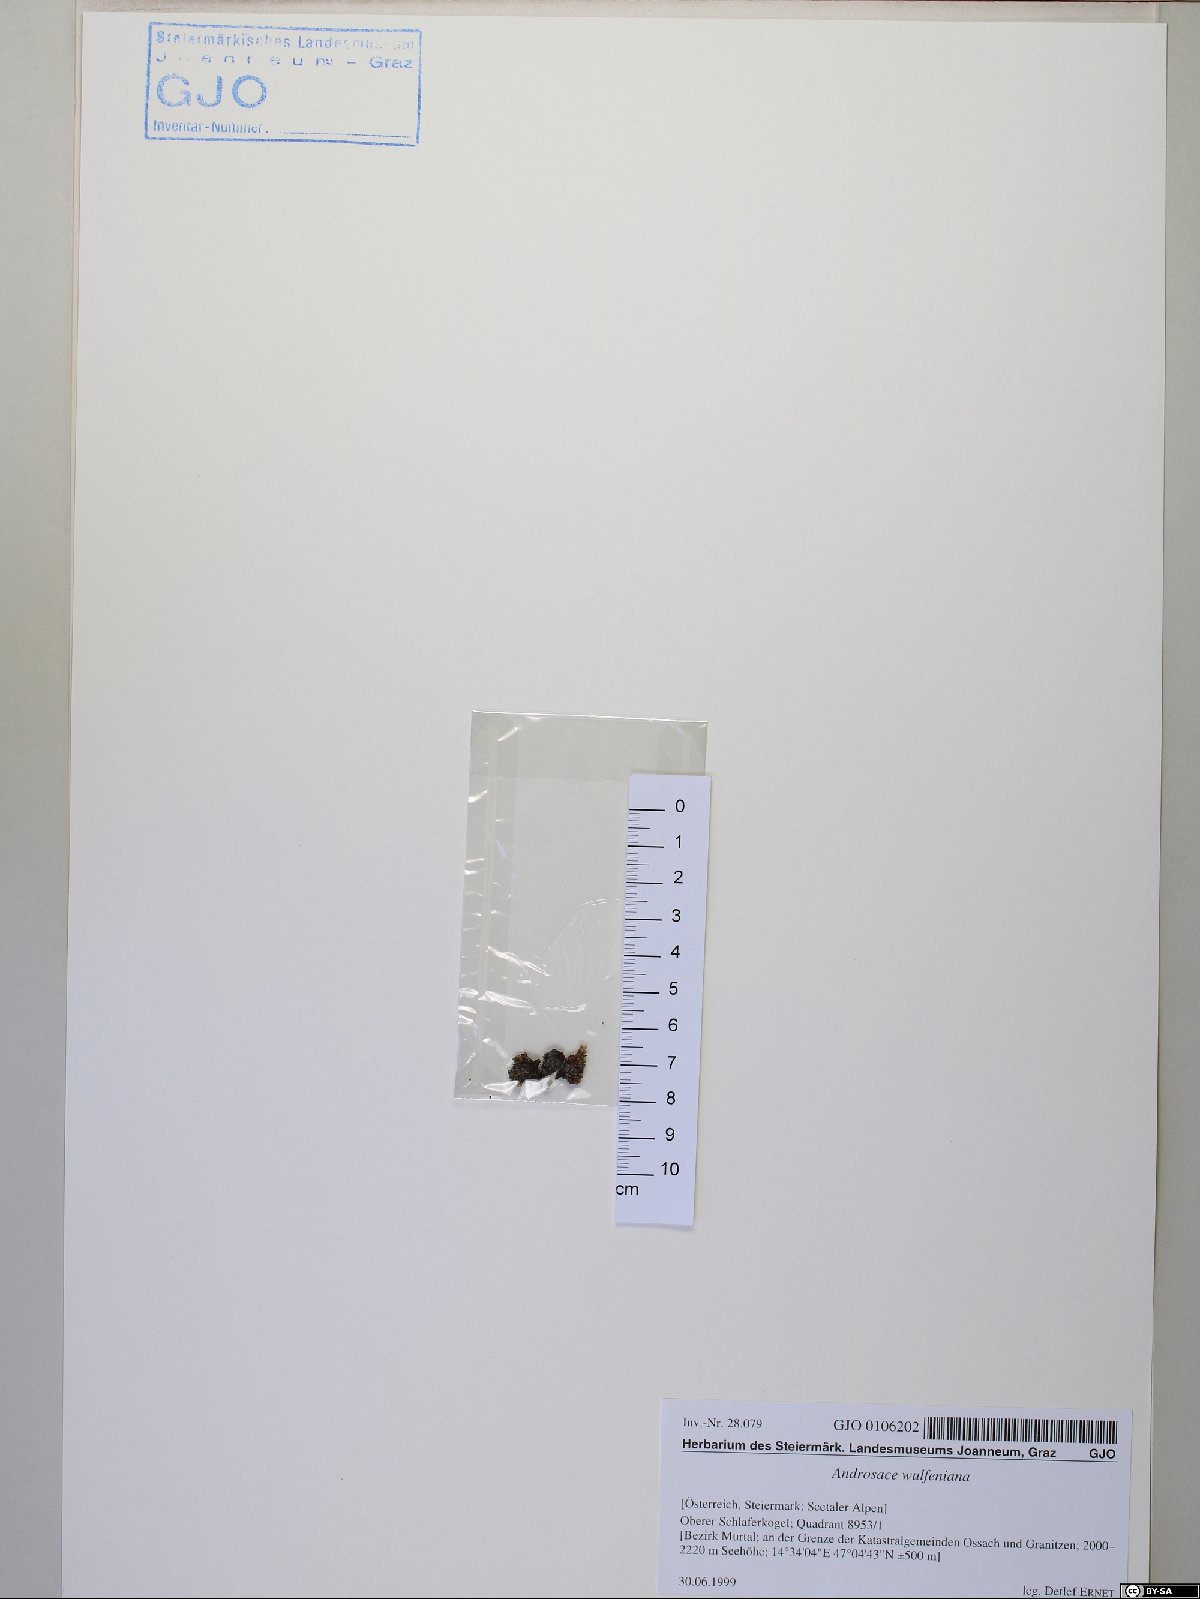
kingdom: Plantae
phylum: Tracheophyta
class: Magnoliopsida
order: Ericales
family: Primulaceae
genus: Androsace
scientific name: Androsace wulfeniana
